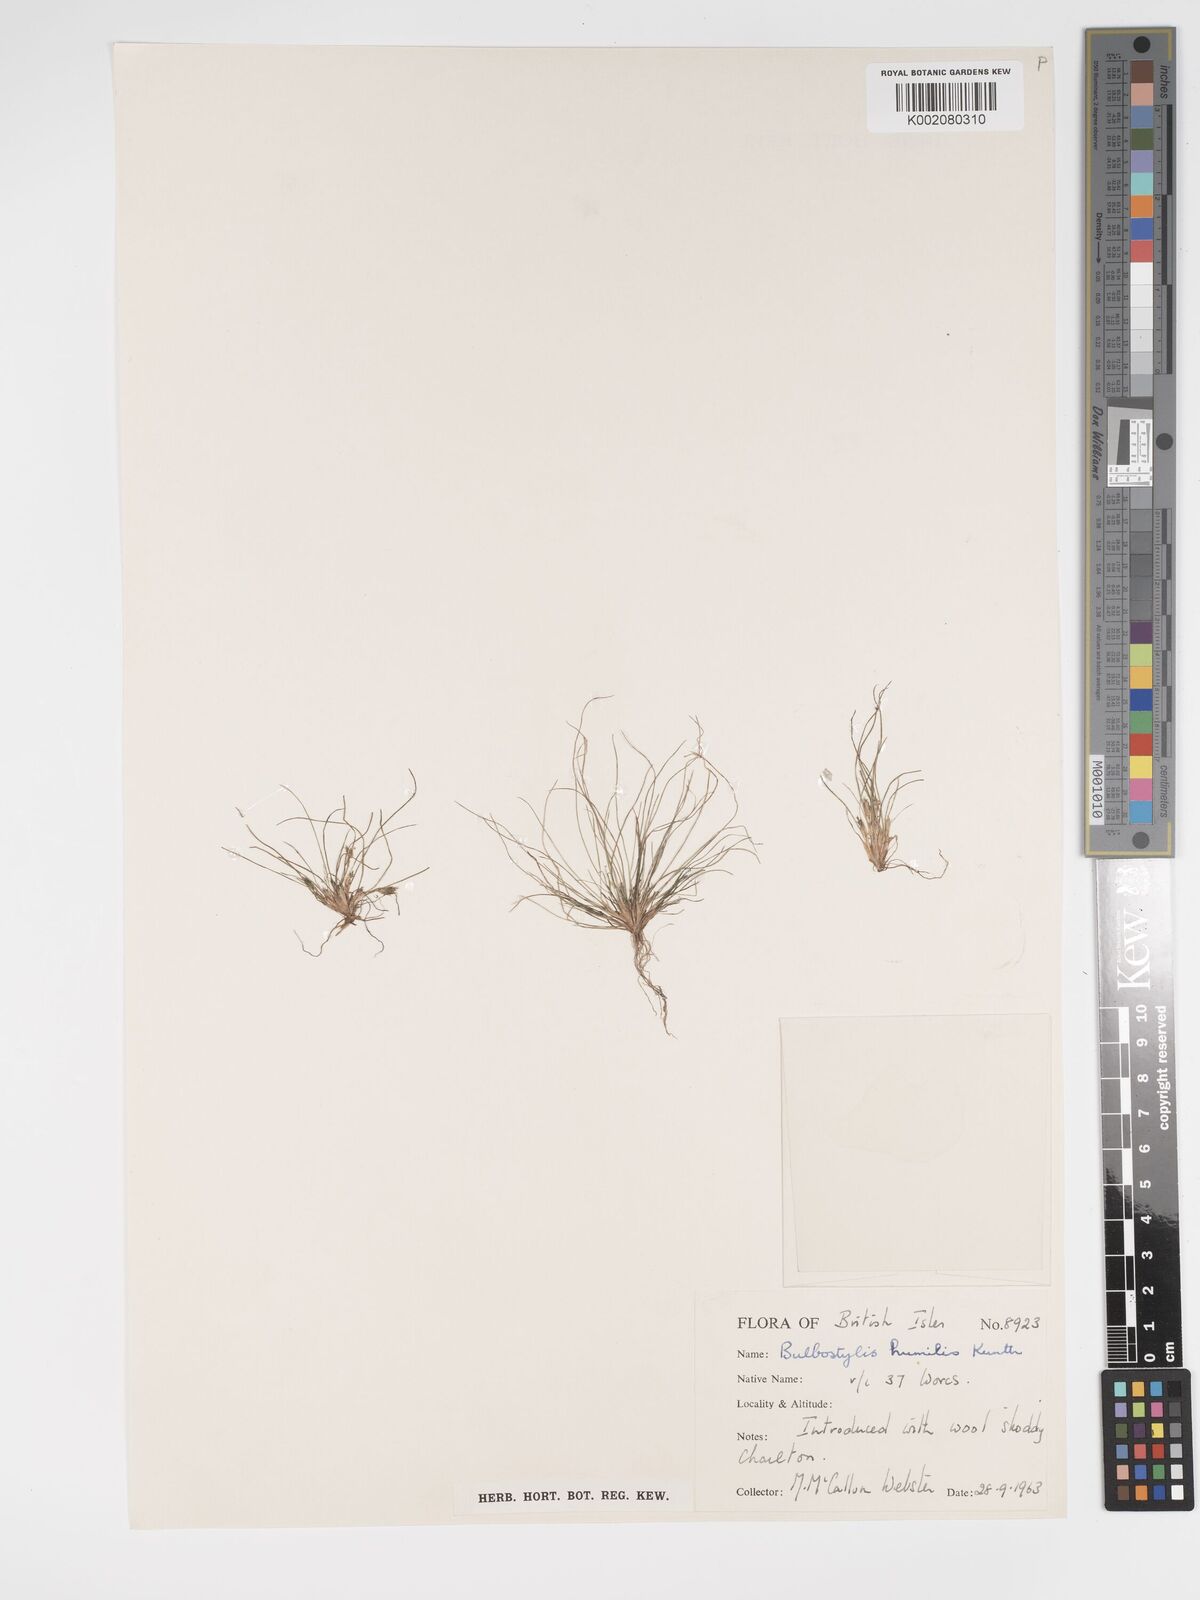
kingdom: Plantae
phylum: Tracheophyta
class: Liliopsida
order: Poales
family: Cyperaceae
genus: Bulbostylis
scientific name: Bulbostylis humilis
